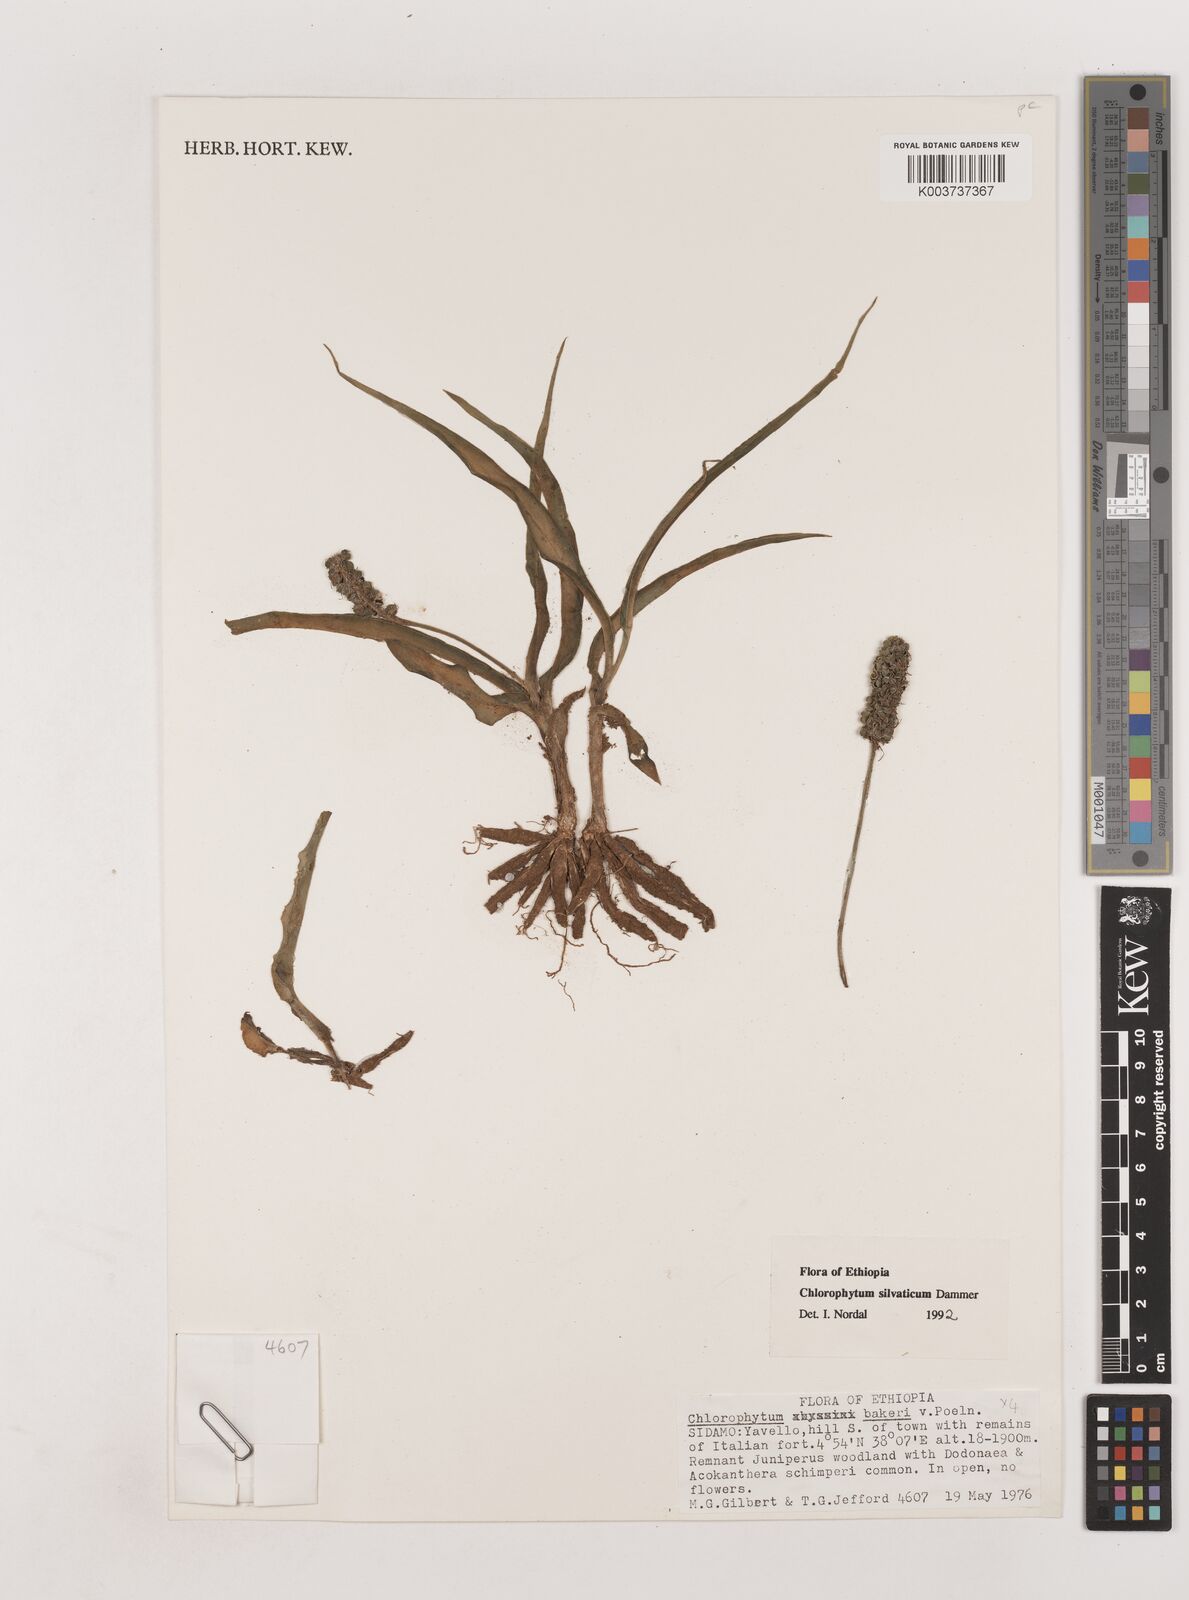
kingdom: Plantae
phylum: Tracheophyta
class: Liliopsida
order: Asparagales
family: Asparagaceae
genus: Chlorophytum
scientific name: Chlorophytum africanum
